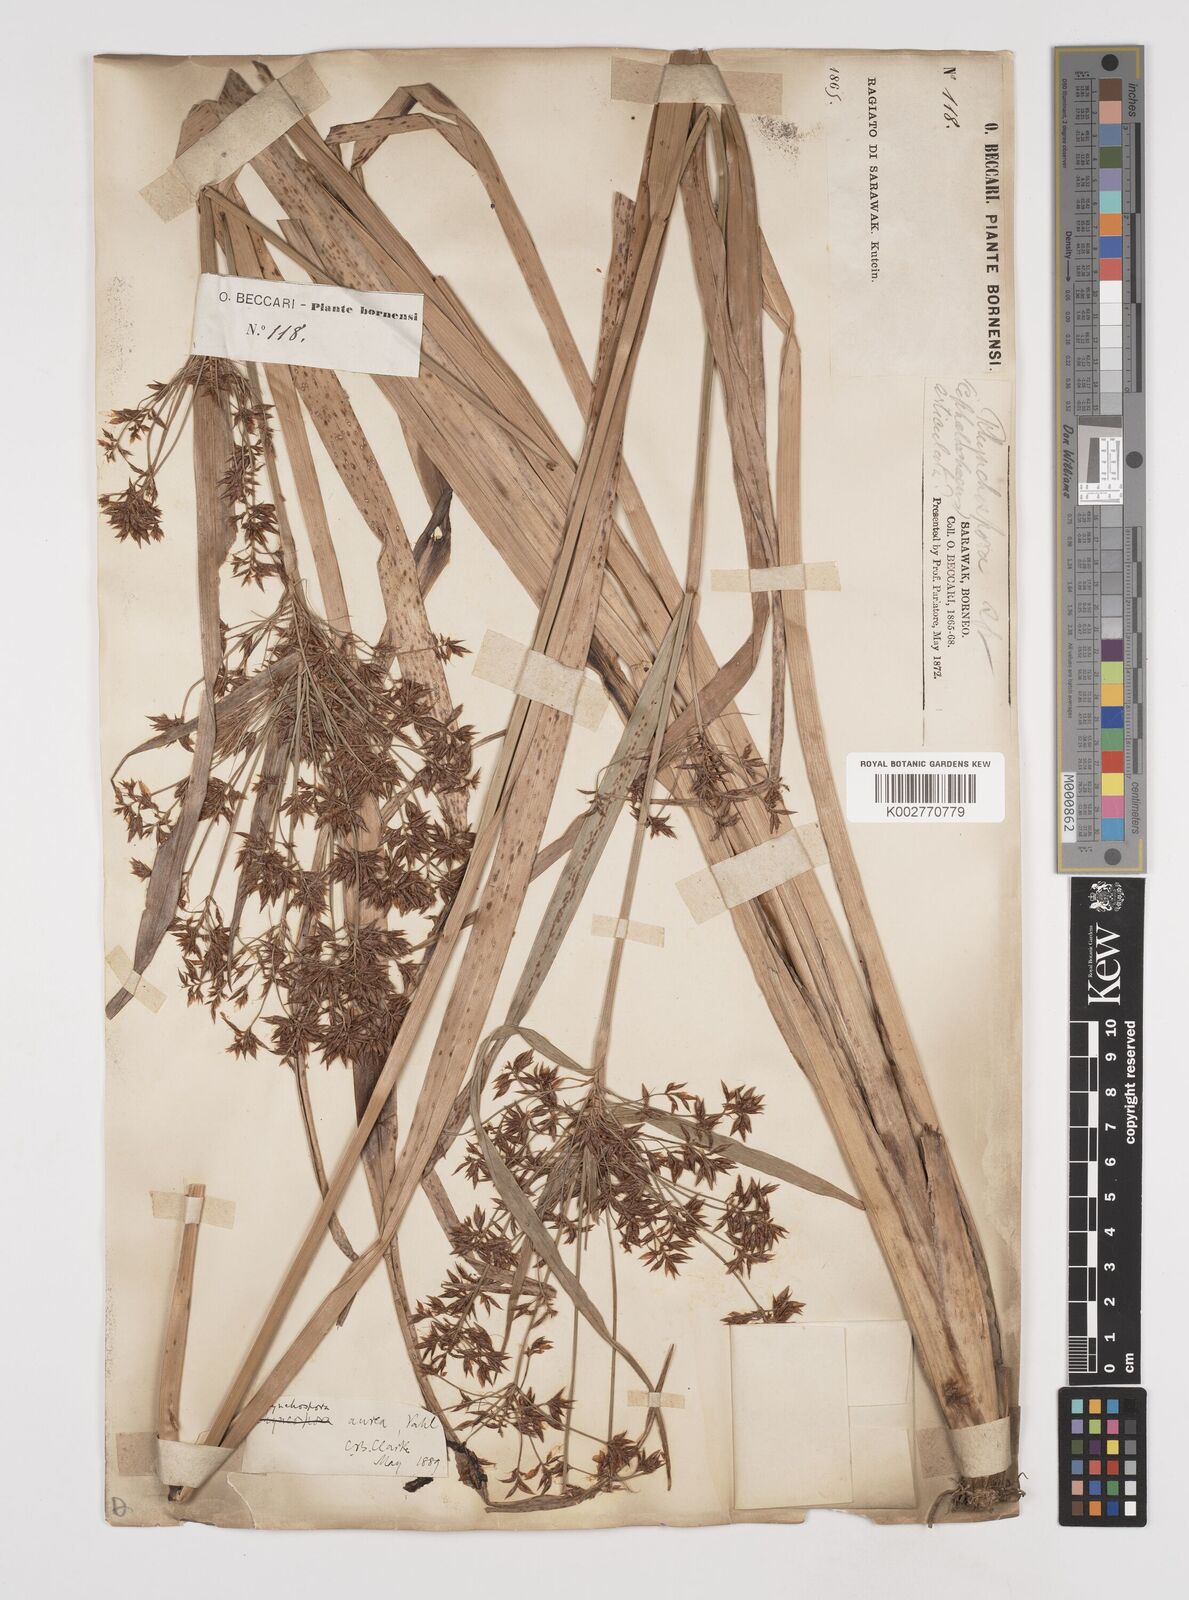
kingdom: Plantae
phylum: Tracheophyta
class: Liliopsida
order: Poales
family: Cyperaceae
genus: Rhynchospora
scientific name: Rhynchospora corymbosa
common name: Golden beak sedge
